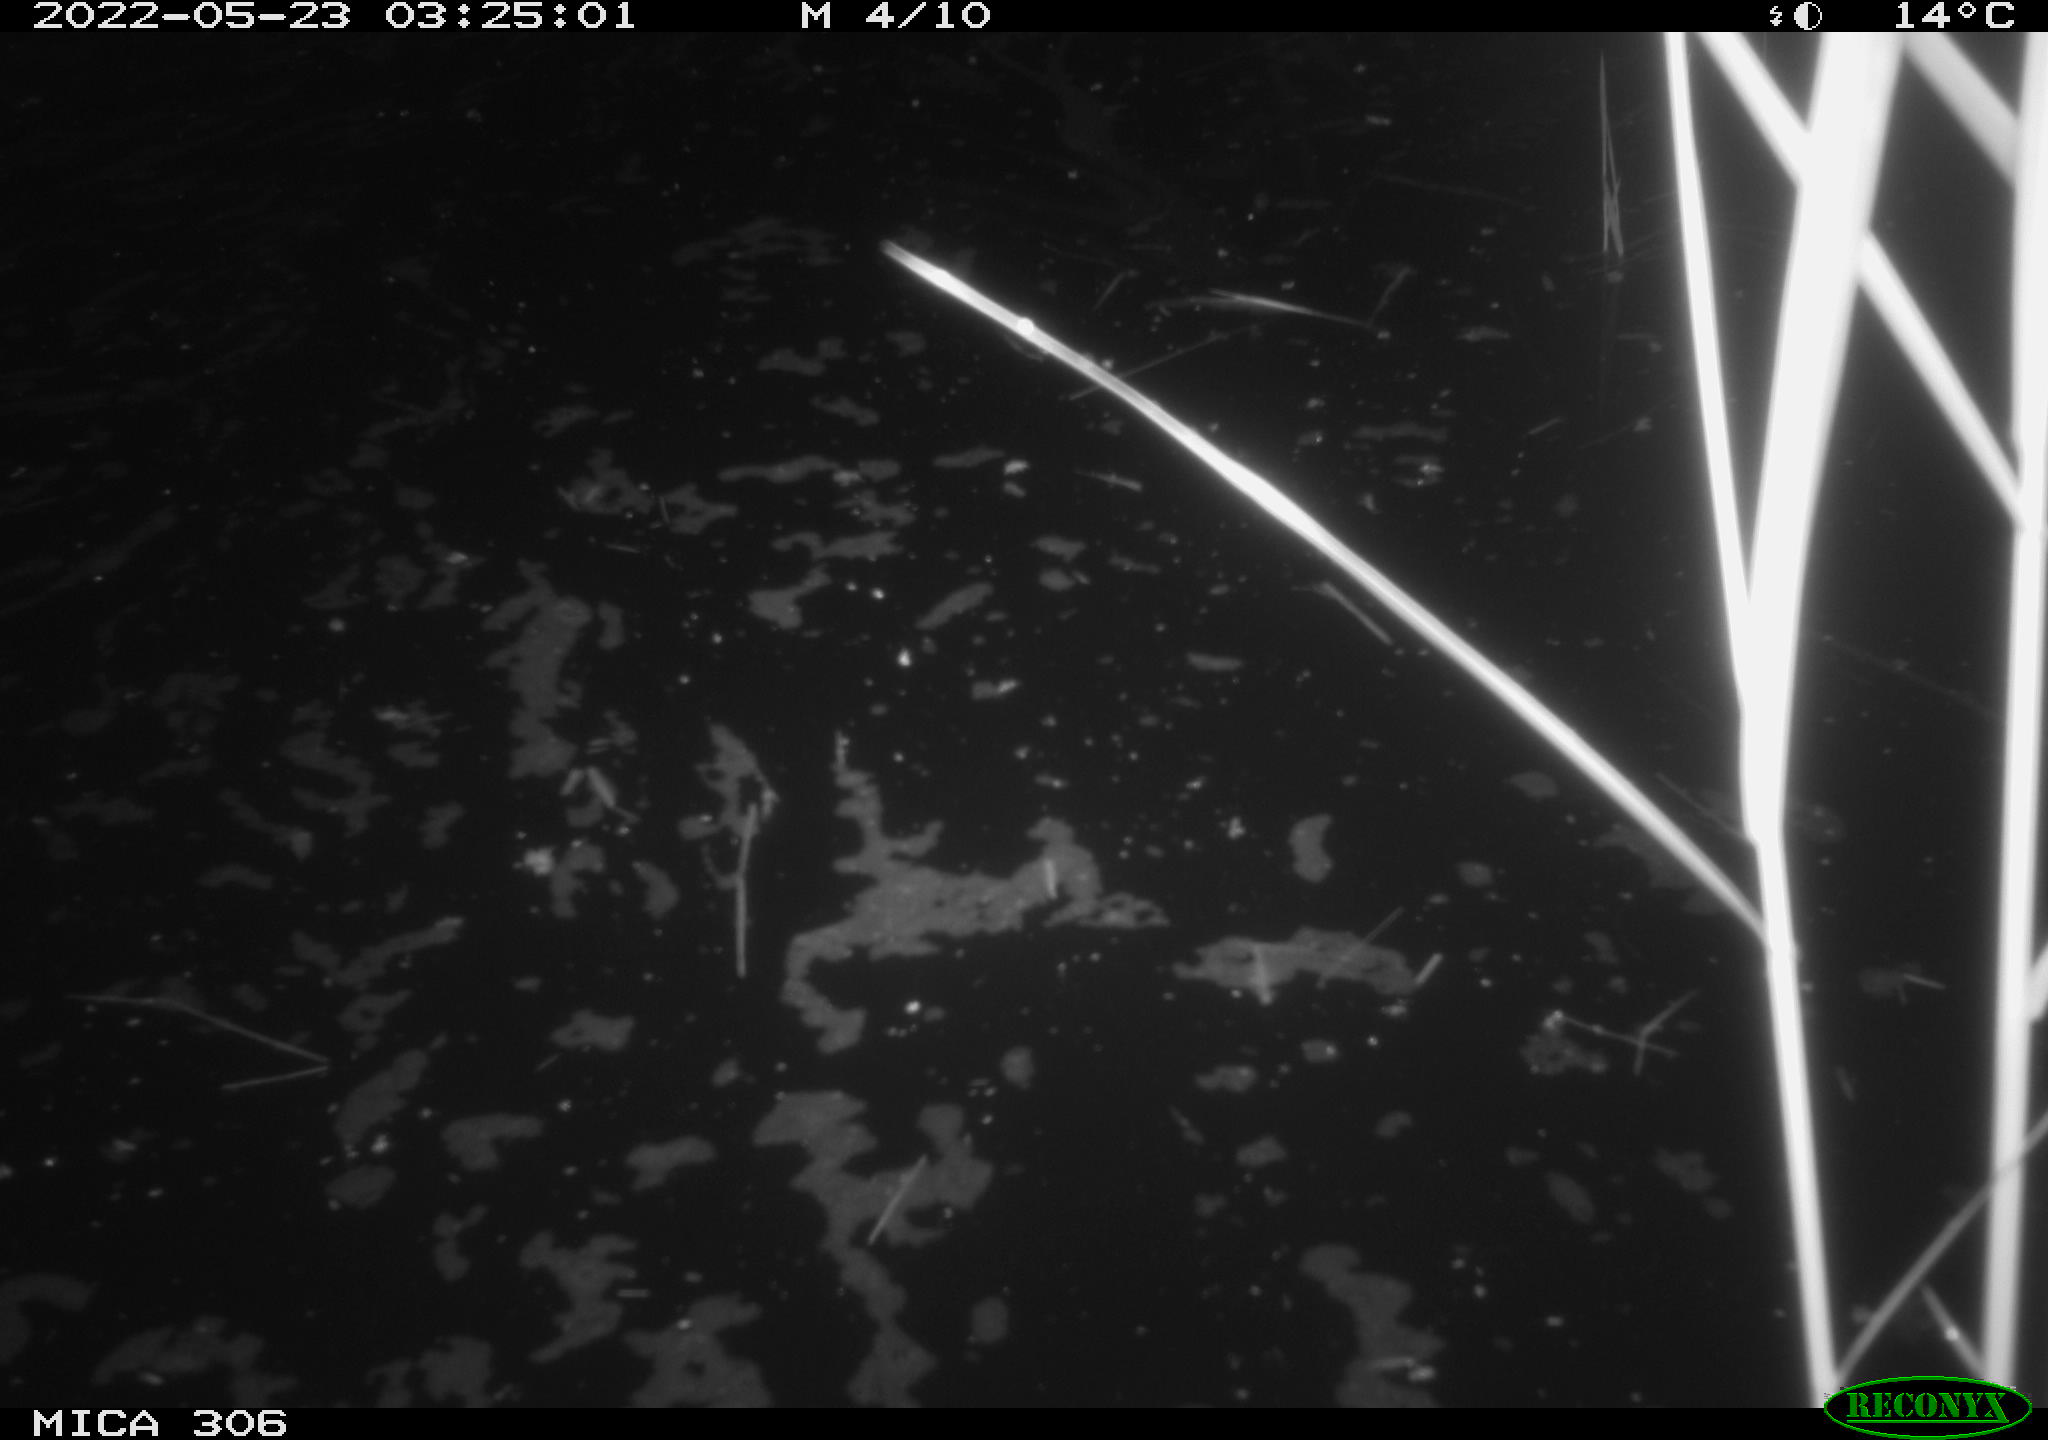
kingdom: Animalia
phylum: Chordata
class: Mammalia
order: Rodentia
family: Cricetidae
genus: Ondatra
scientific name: Ondatra zibethicus
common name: Muskrat
